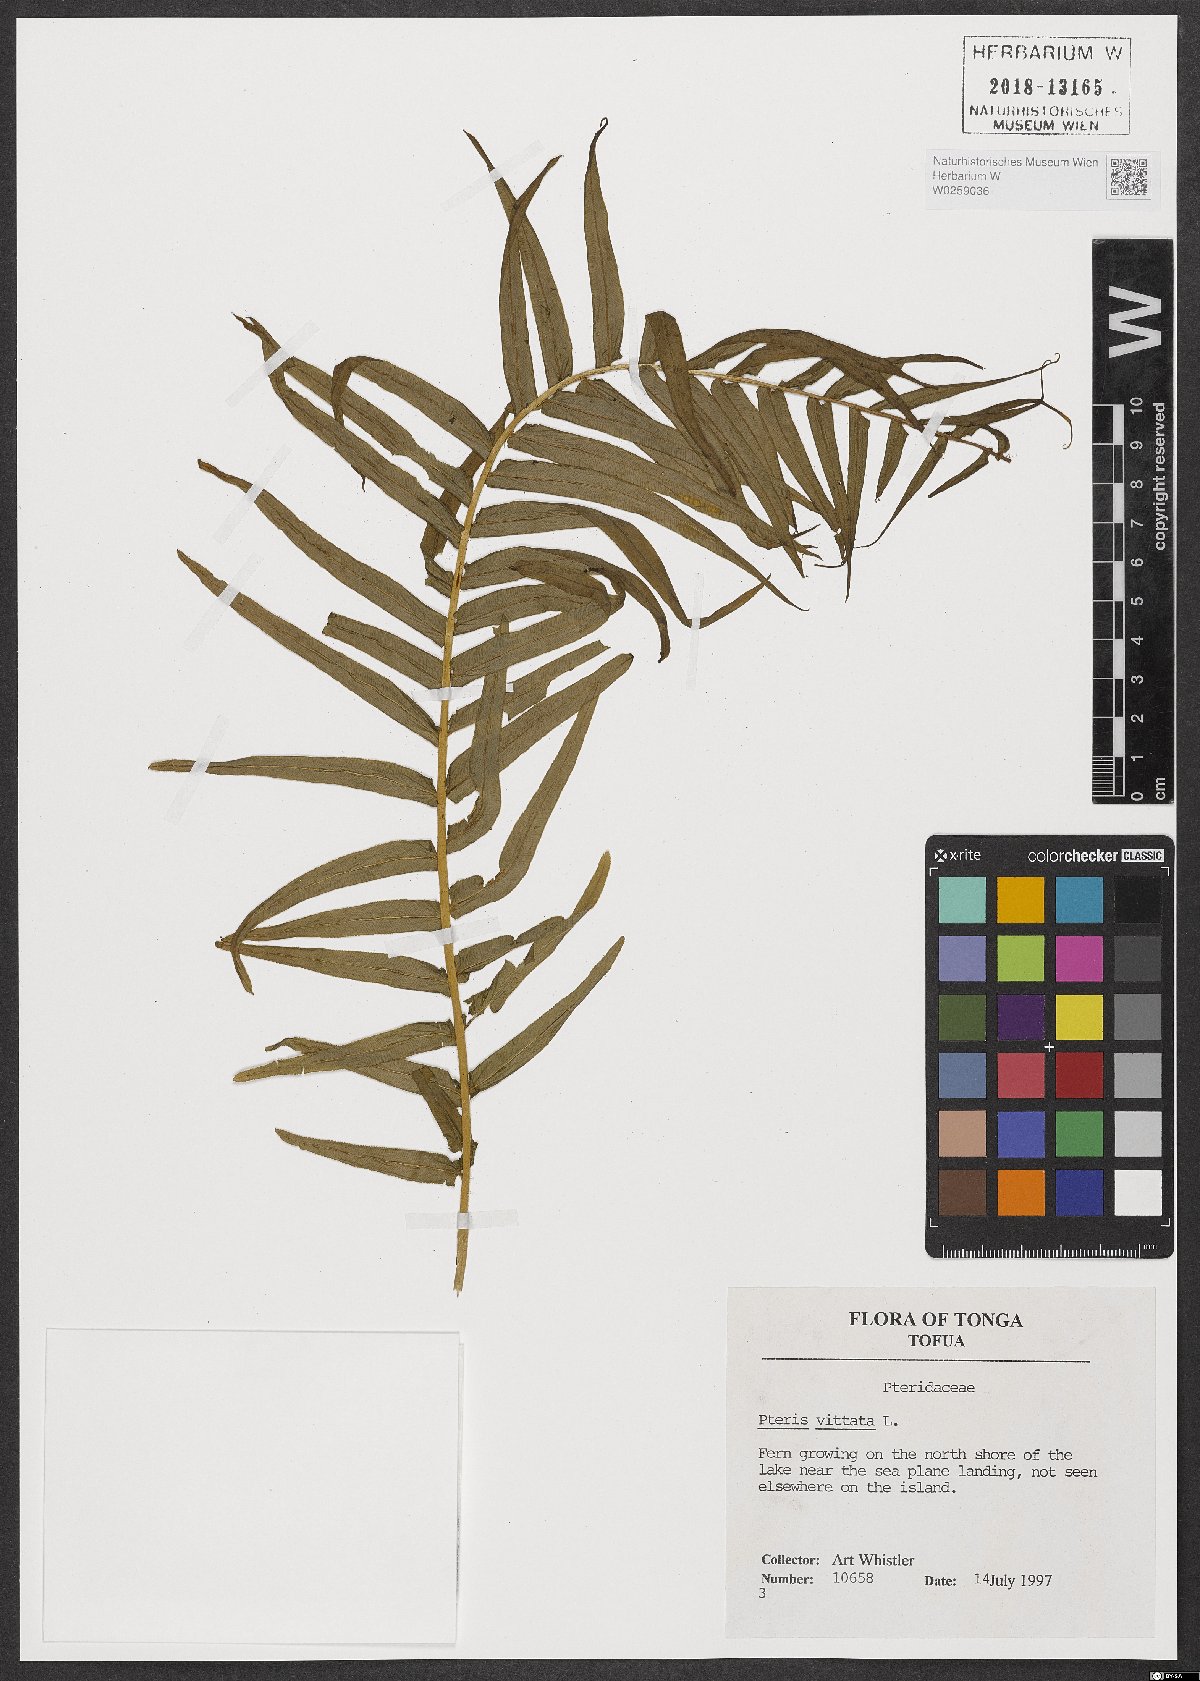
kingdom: Plantae
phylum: Tracheophyta
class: Polypodiopsida
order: Polypodiales
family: Pteridaceae
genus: Pteris
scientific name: Pteris vittata
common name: Ladder brake
